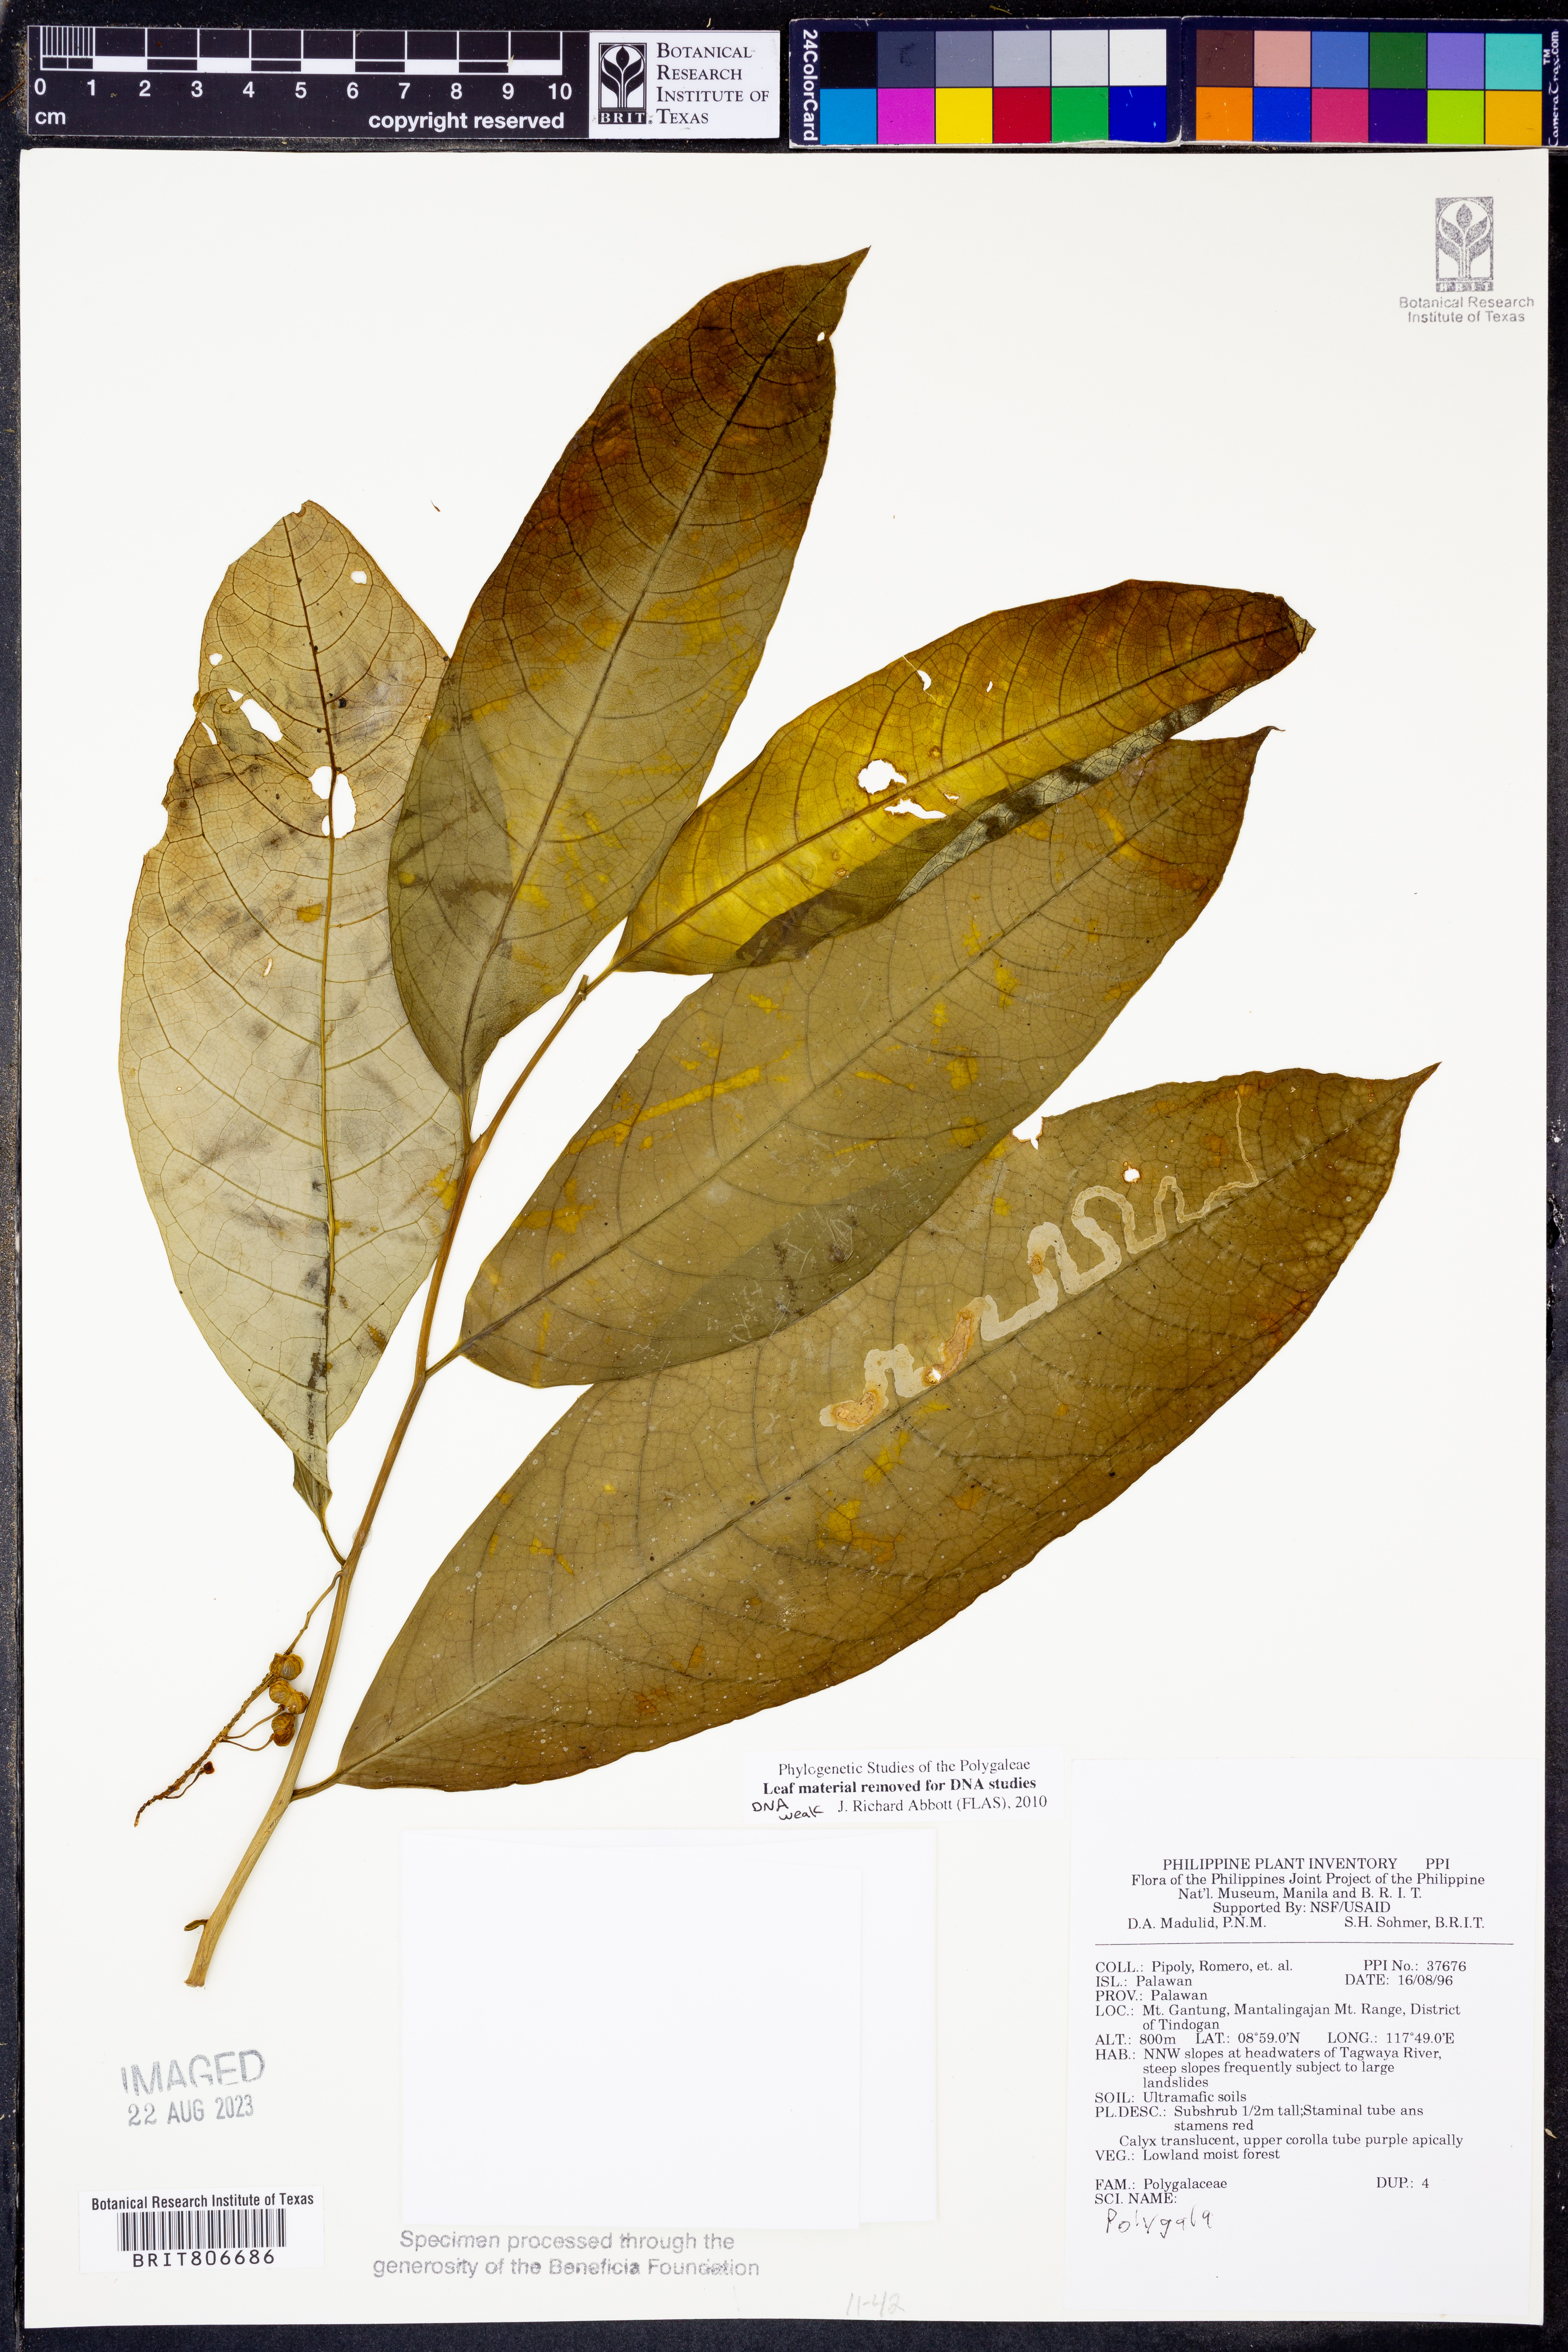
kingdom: Plantae
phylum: Tracheophyta
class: Magnoliopsida
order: Fabales
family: Polygalaceae
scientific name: Polygalaceae
